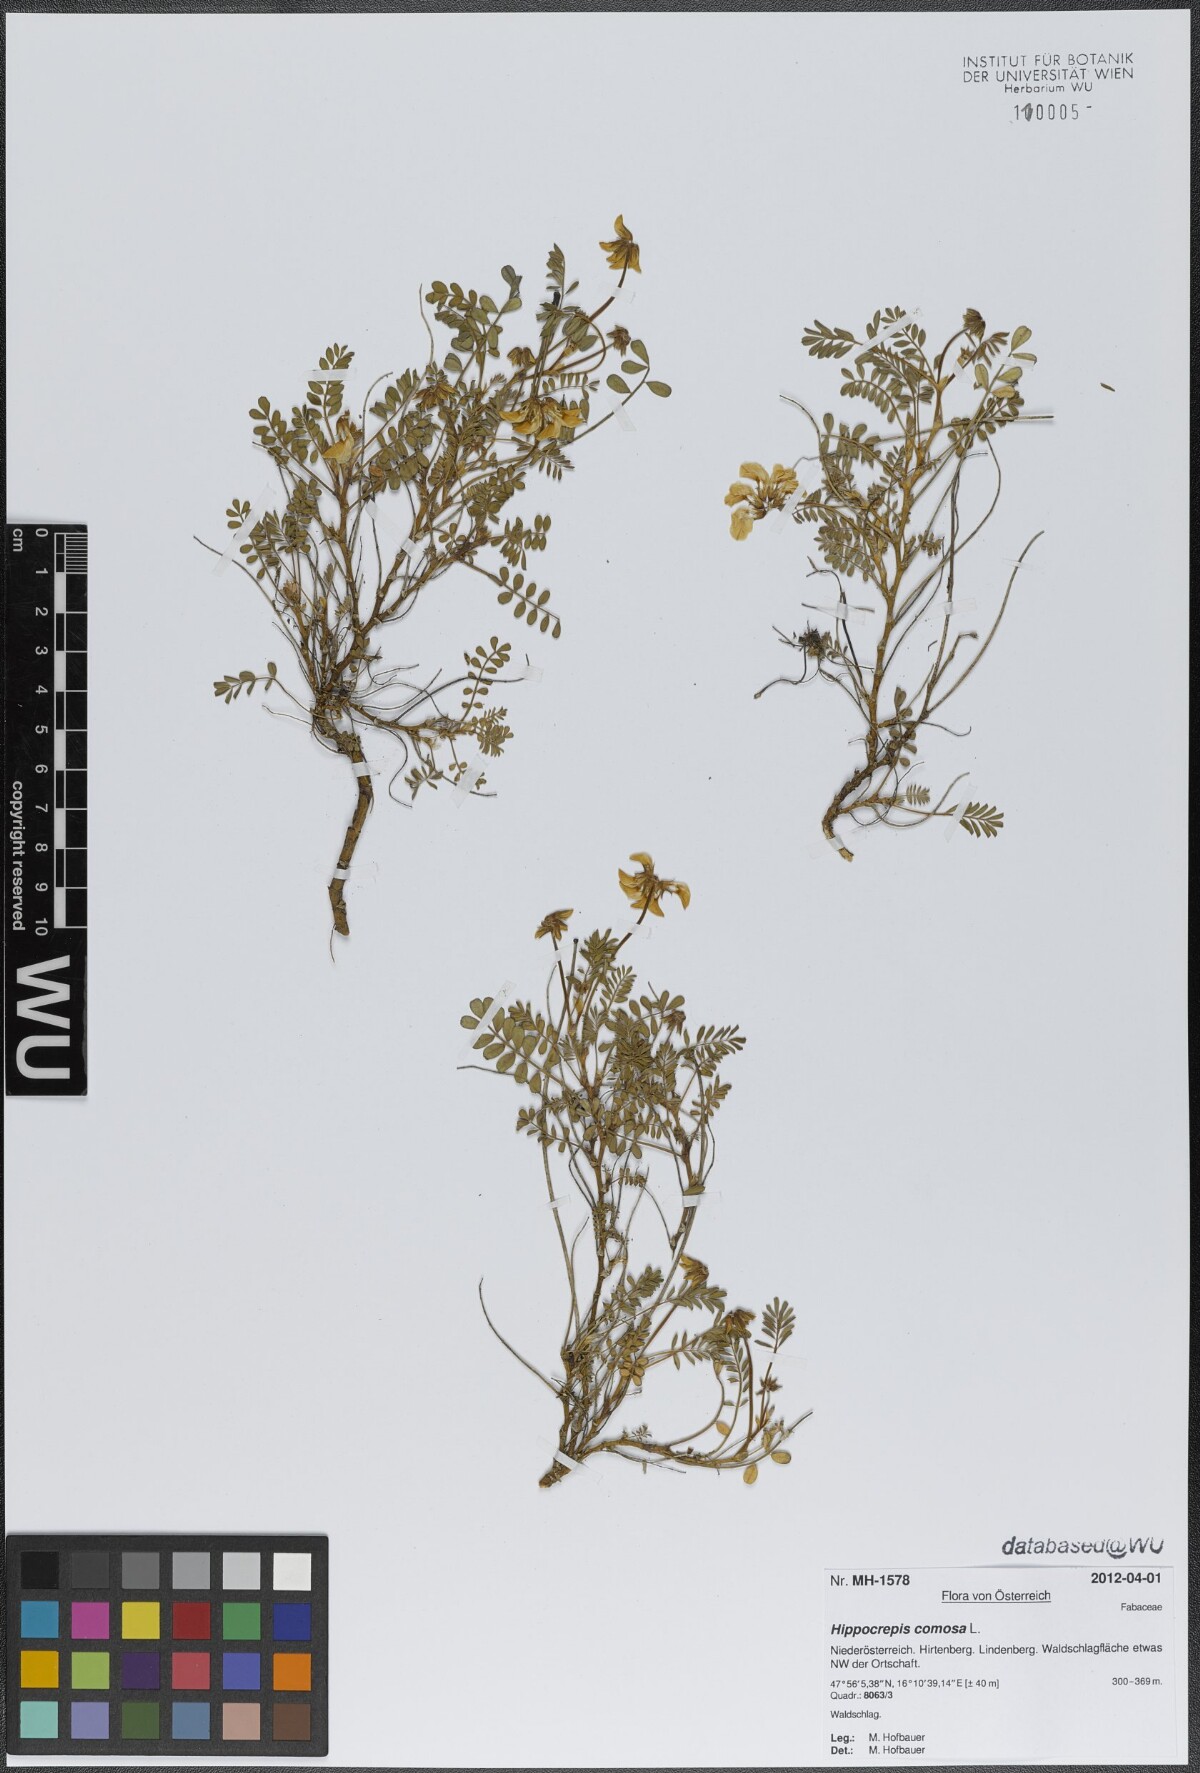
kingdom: Plantae
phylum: Tracheophyta
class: Magnoliopsida
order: Fabales
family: Fabaceae
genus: Hippocrepis
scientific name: Hippocrepis comosa
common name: Horseshoe vetch
